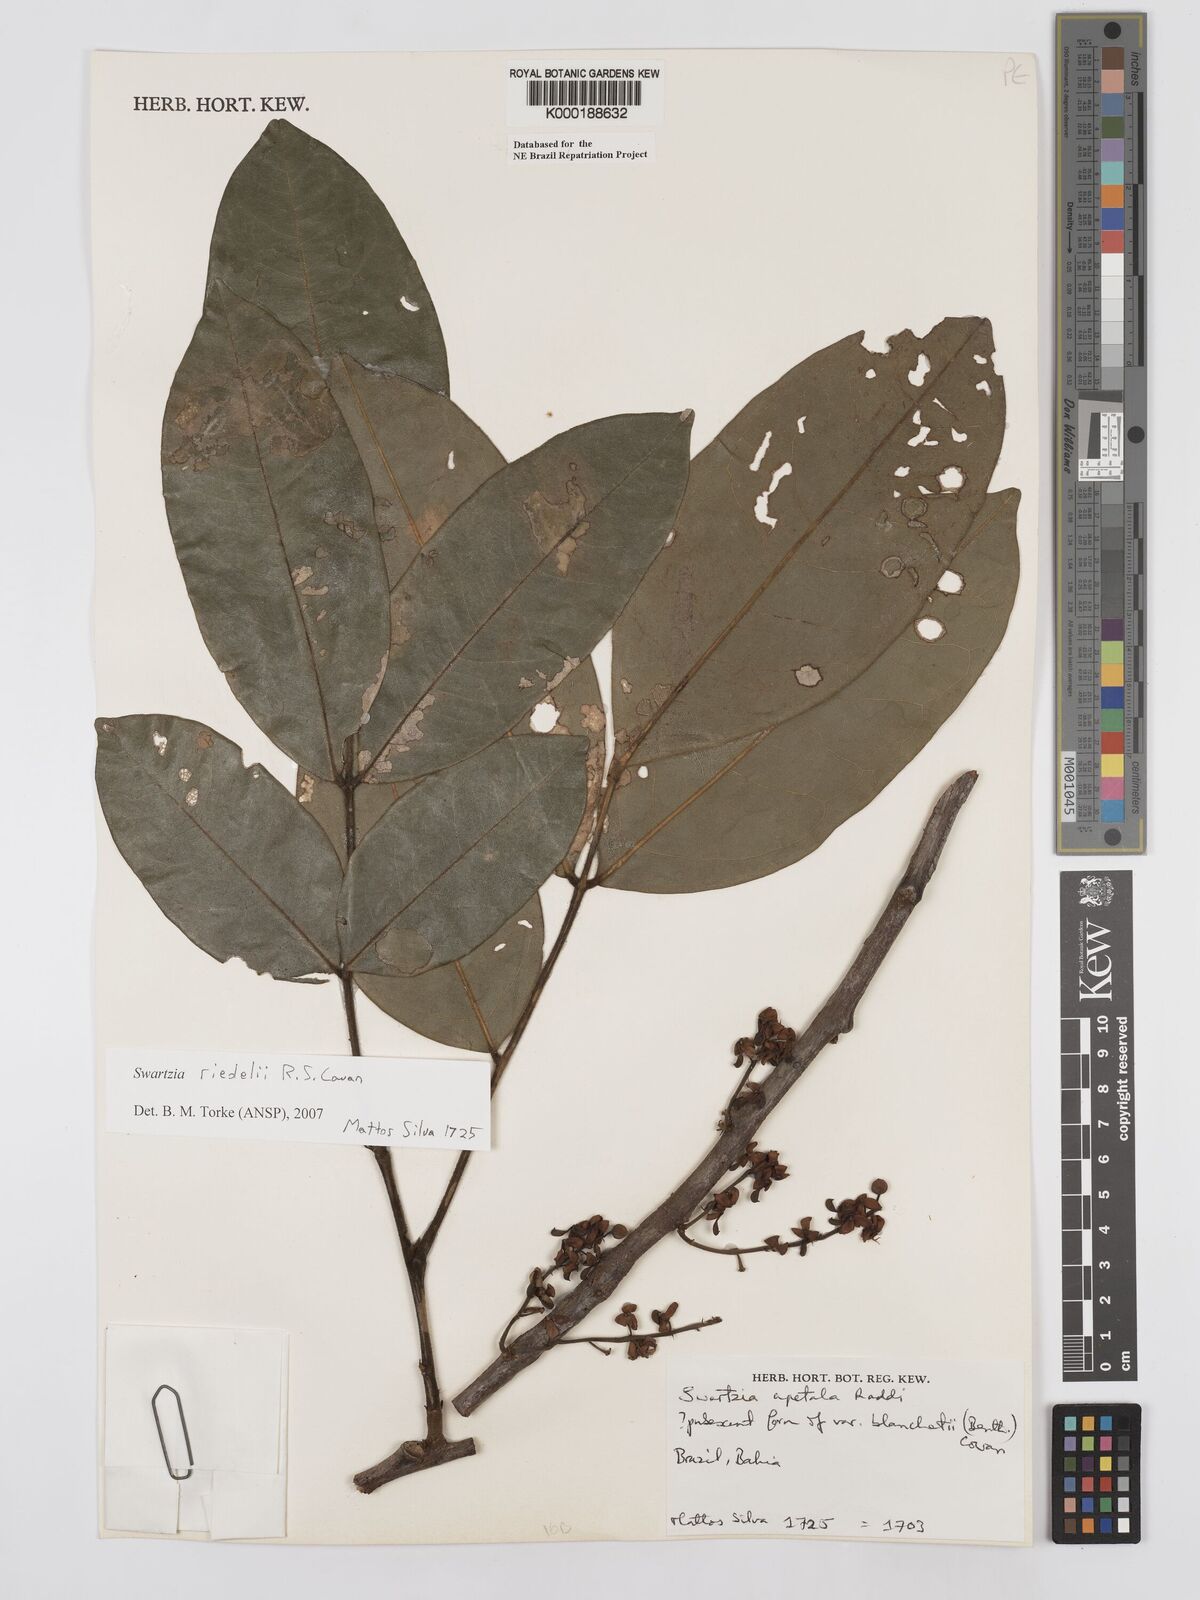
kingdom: Plantae
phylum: Tracheophyta
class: Magnoliopsida
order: Fabales
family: Fabaceae
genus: Swartzia
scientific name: Swartzia apetala
